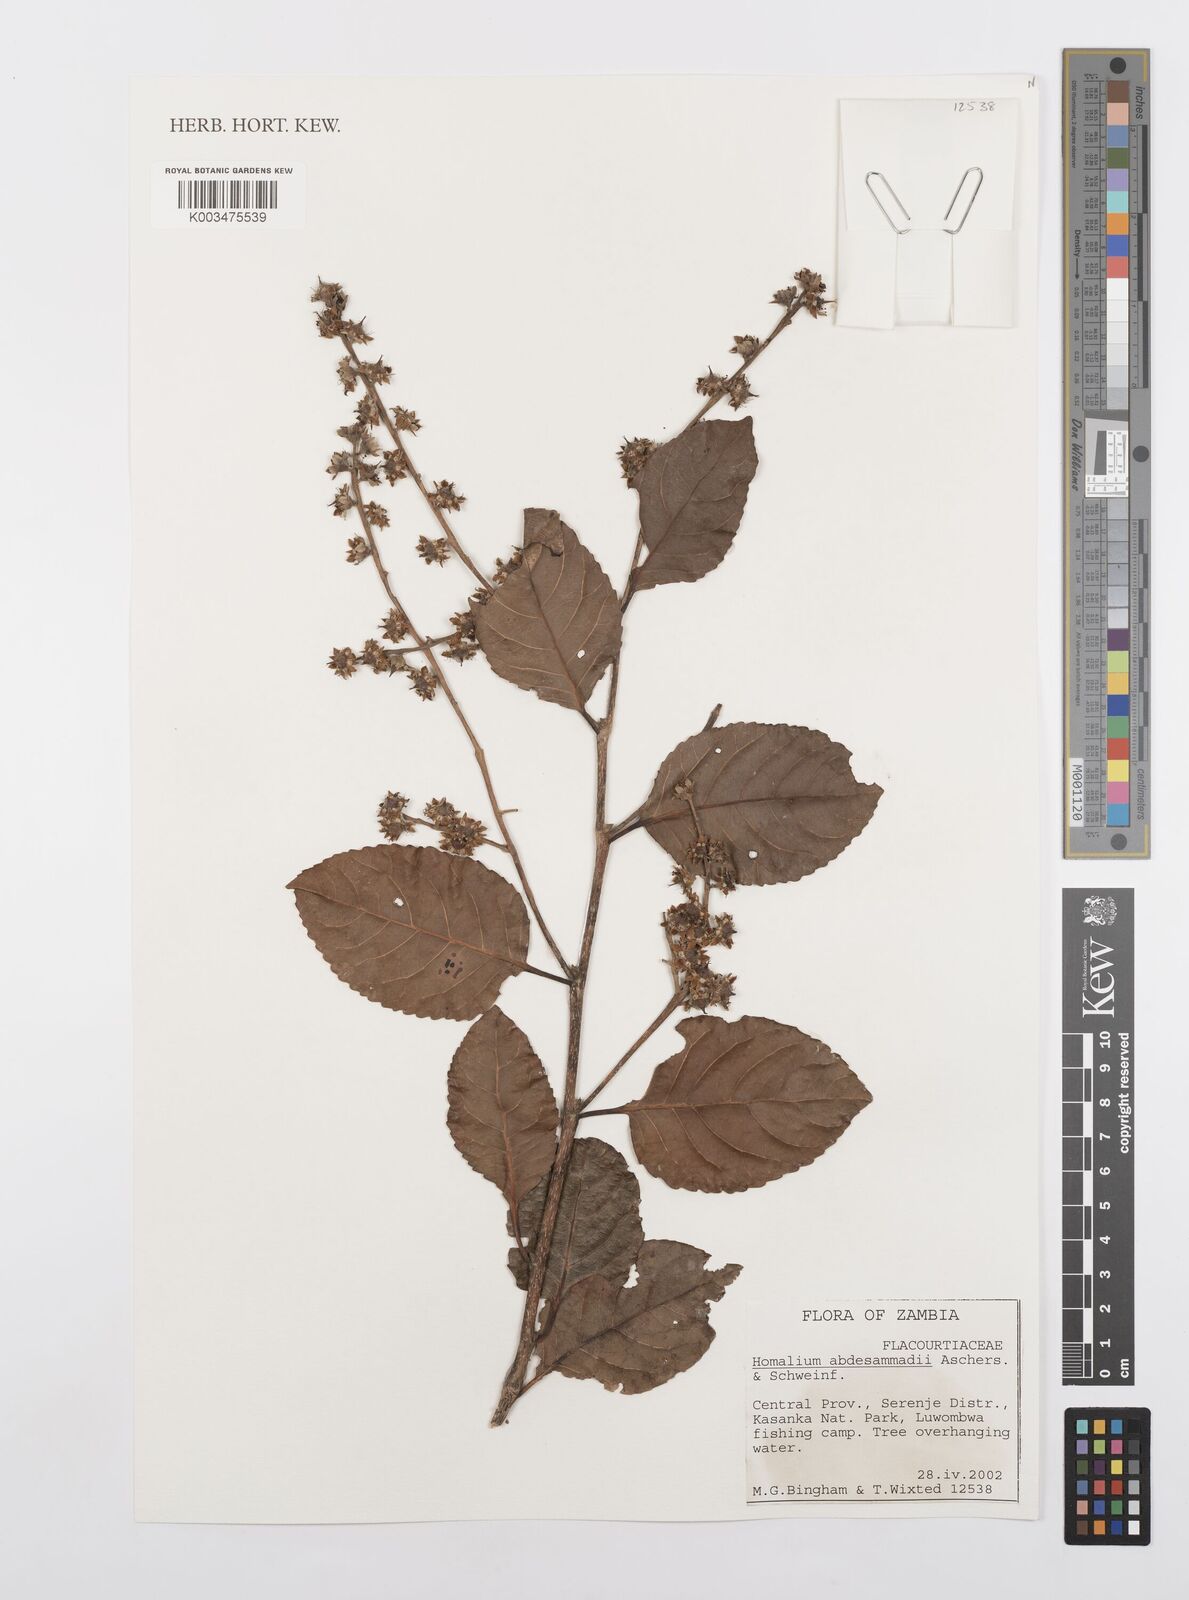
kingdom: Plantae
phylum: Tracheophyta
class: Magnoliopsida
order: Malpighiales
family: Salicaceae
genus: Homalium
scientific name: Homalium abdessammadii
